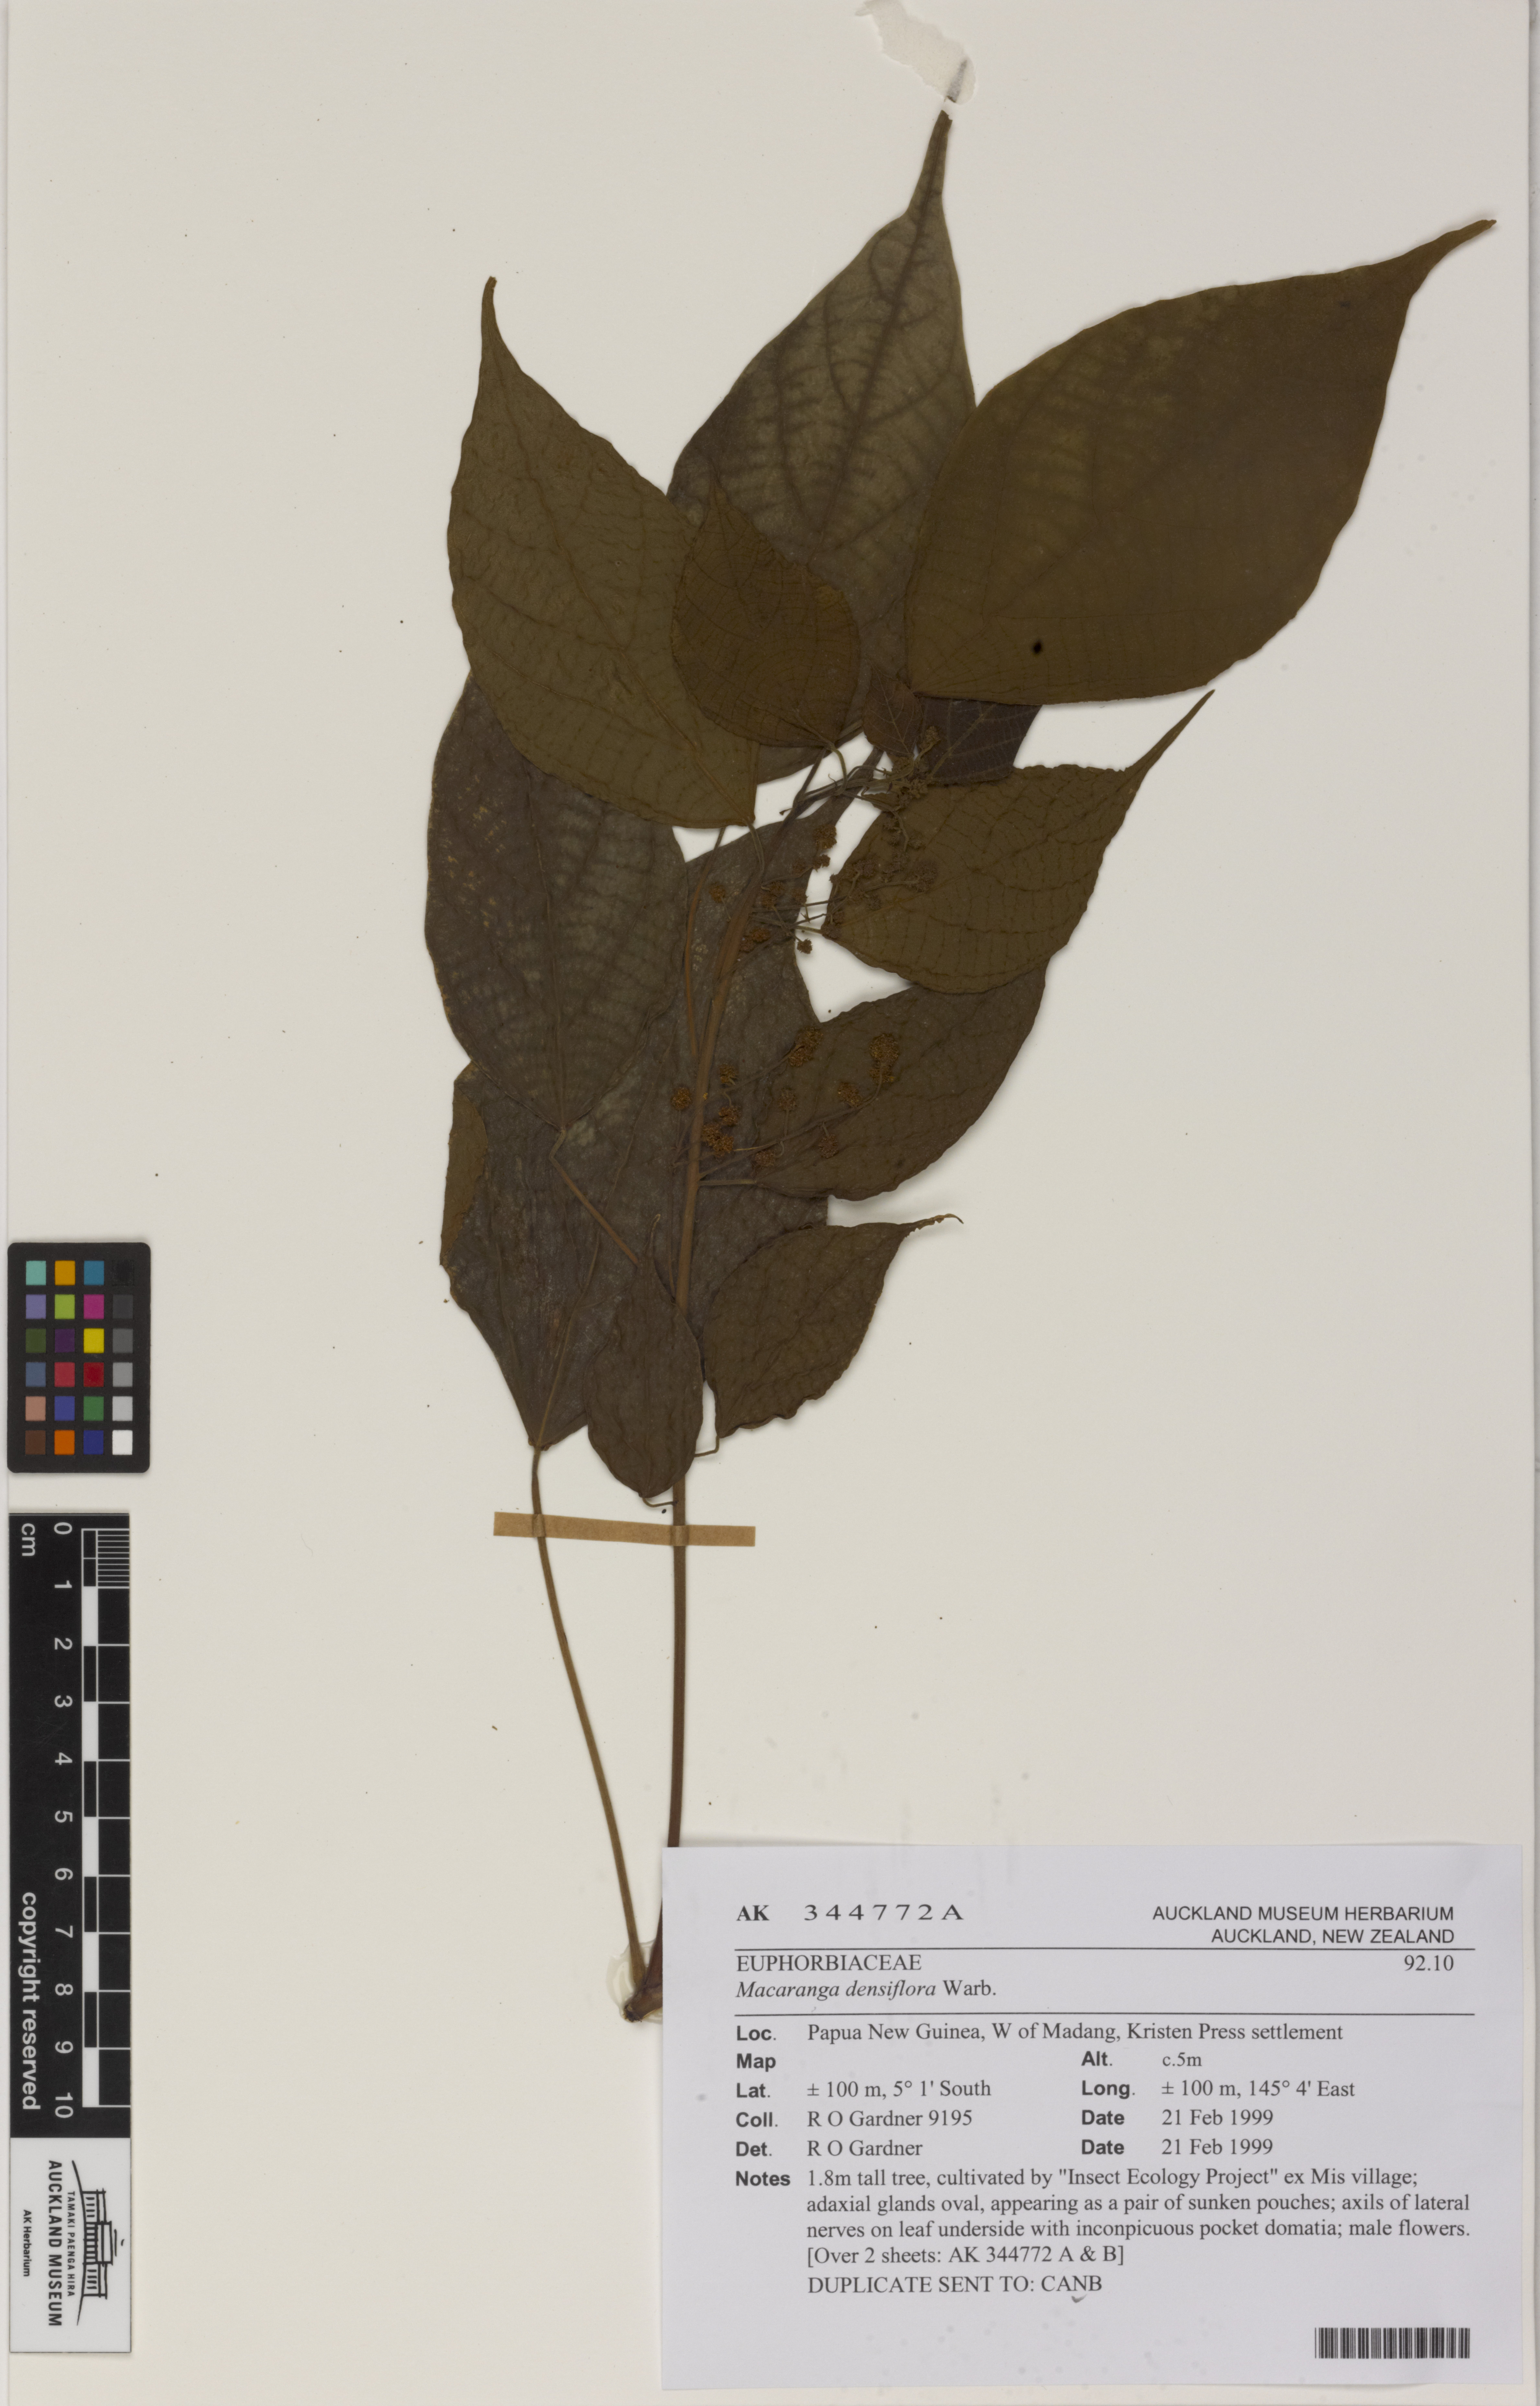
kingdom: Plantae
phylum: Tracheophyta
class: Magnoliopsida
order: Malpighiales
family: Euphorbiaceae
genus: Macaranga
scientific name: Macaranga densiflora
